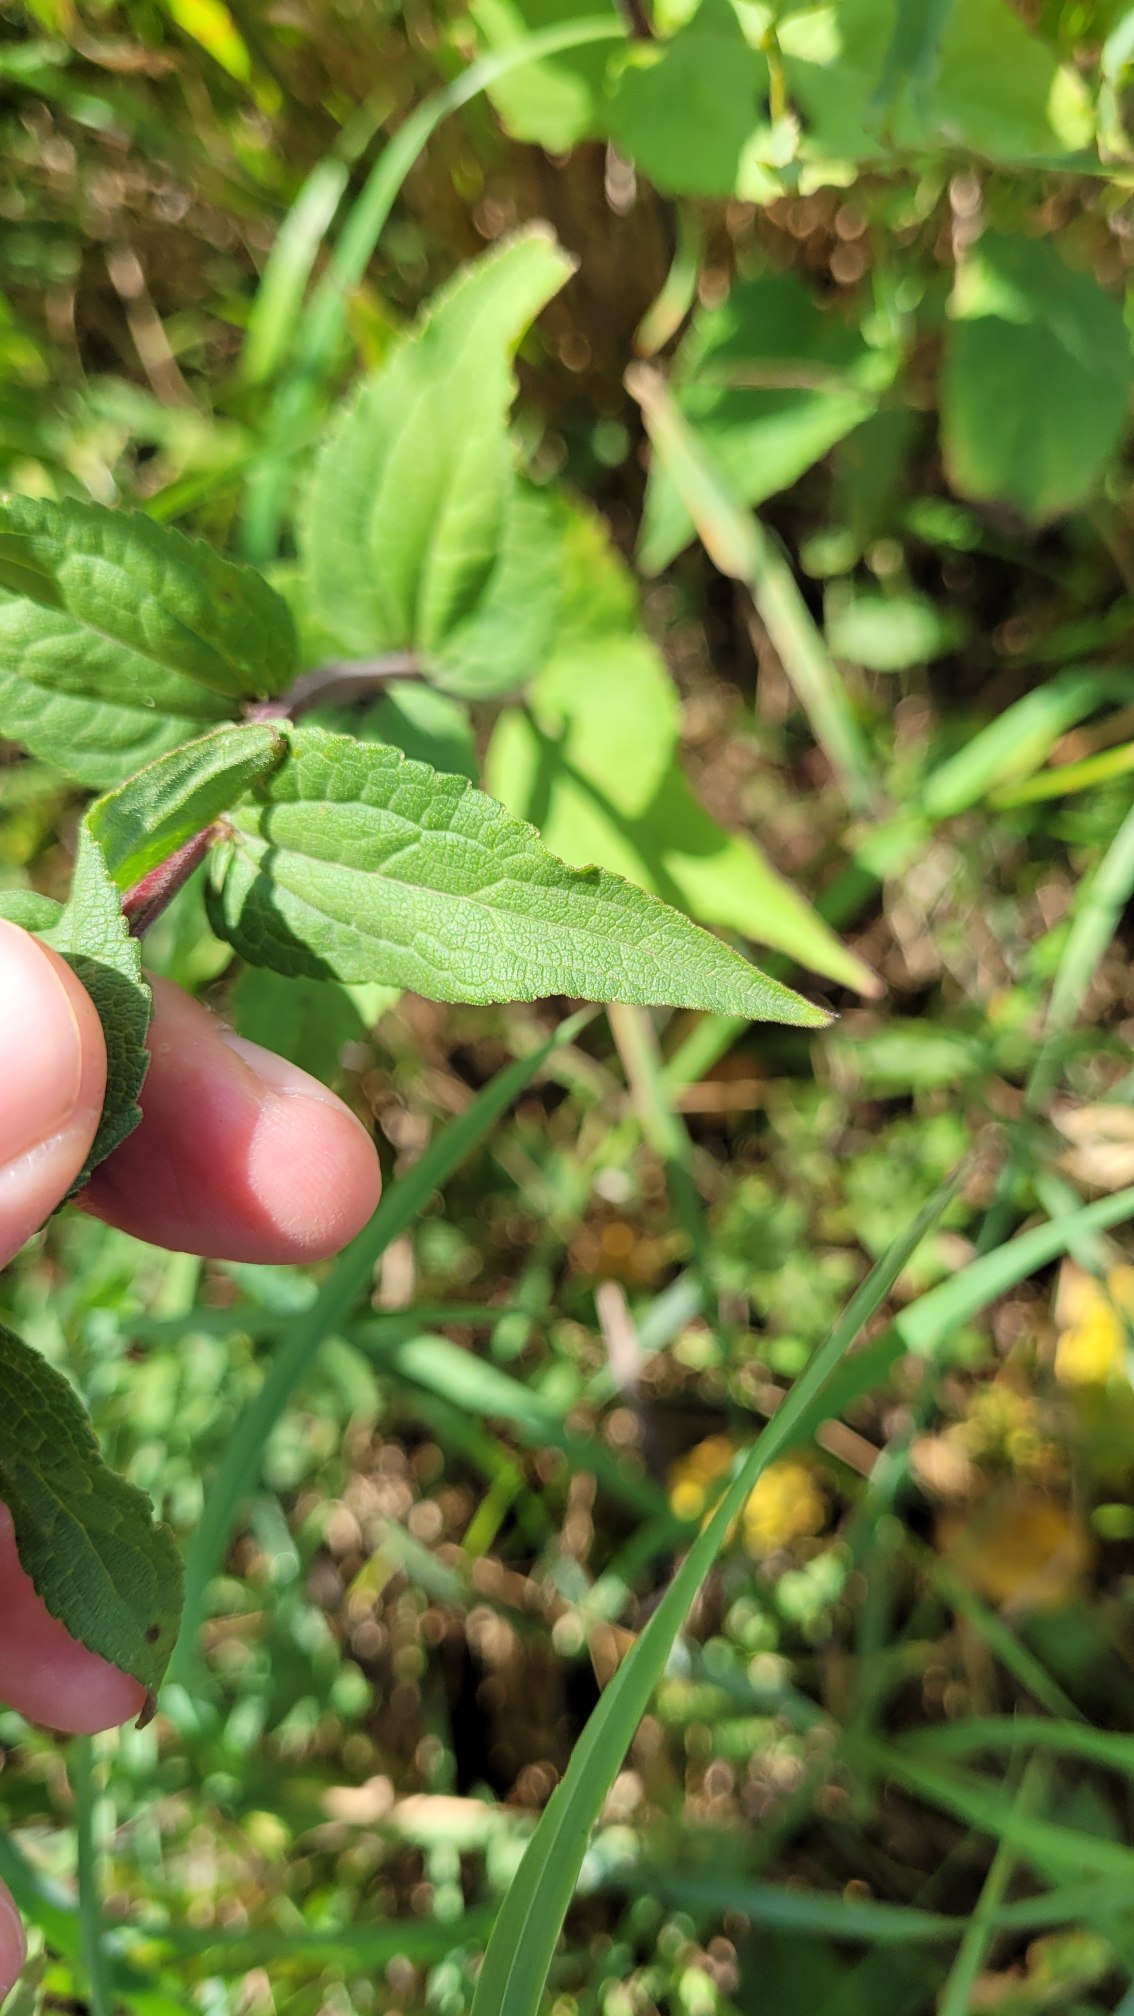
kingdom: Plantae
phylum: Tracheophyta
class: Magnoliopsida
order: Asterales
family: Campanulaceae
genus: Campanula
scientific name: Campanula rapunculoides
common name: Ensidig klokke
